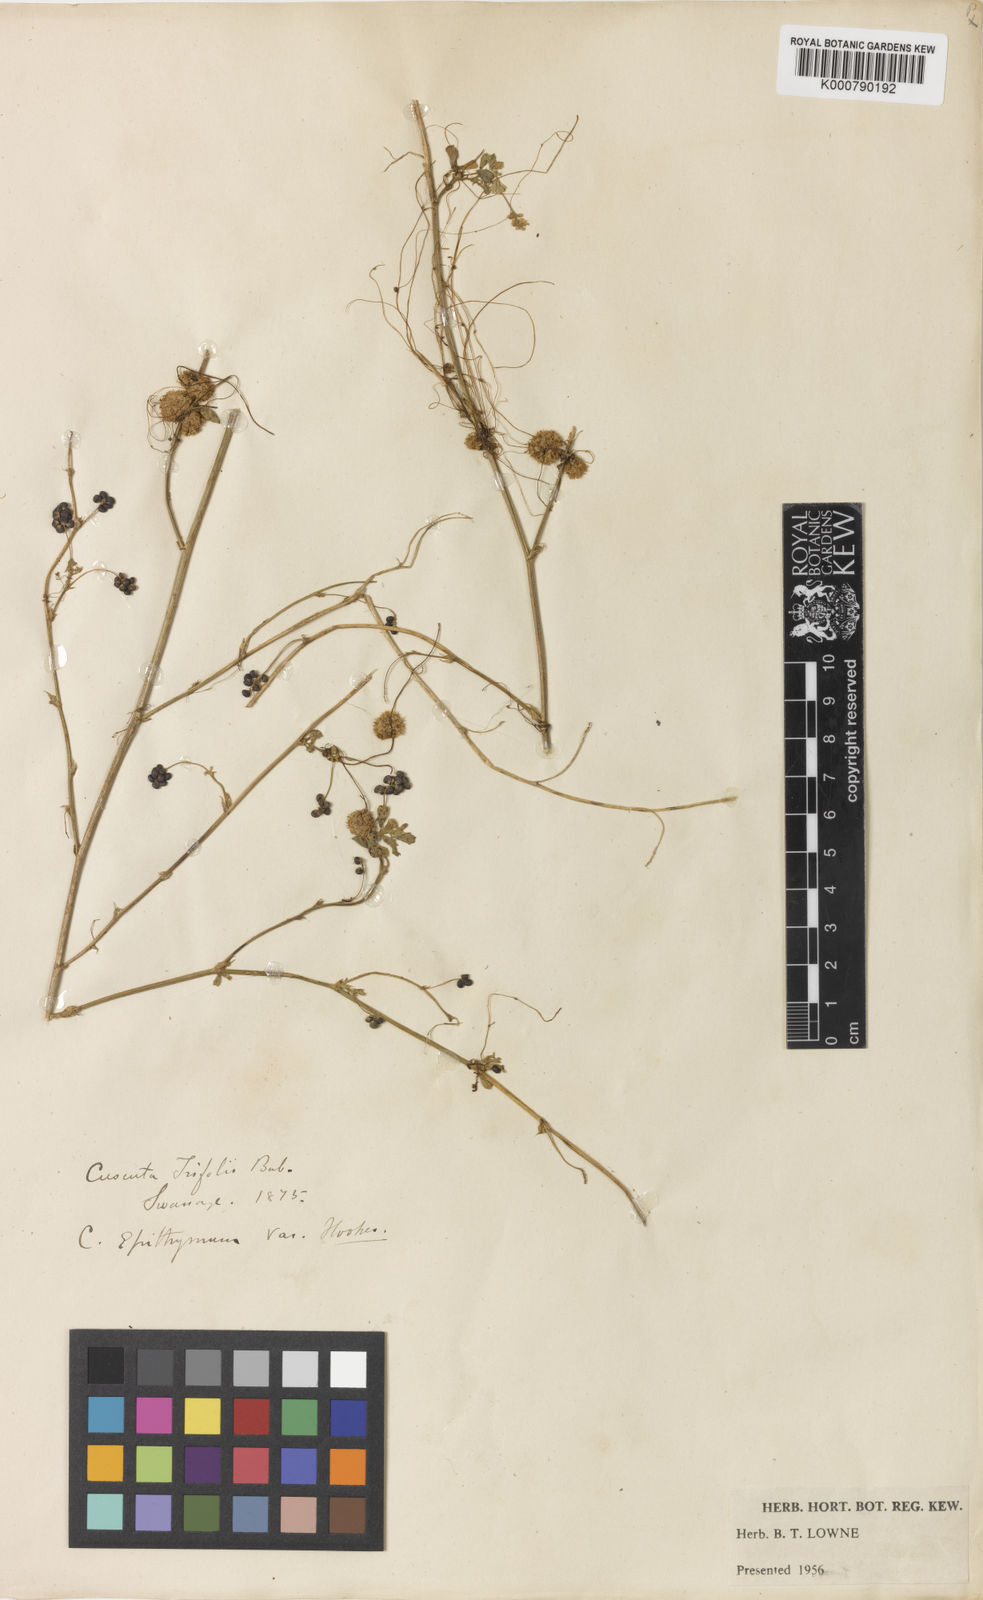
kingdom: Plantae
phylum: Tracheophyta
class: Magnoliopsida
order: Solanales
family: Convolvulaceae
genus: Cuscuta
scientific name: Cuscuta epithymum
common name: Clover dodder
